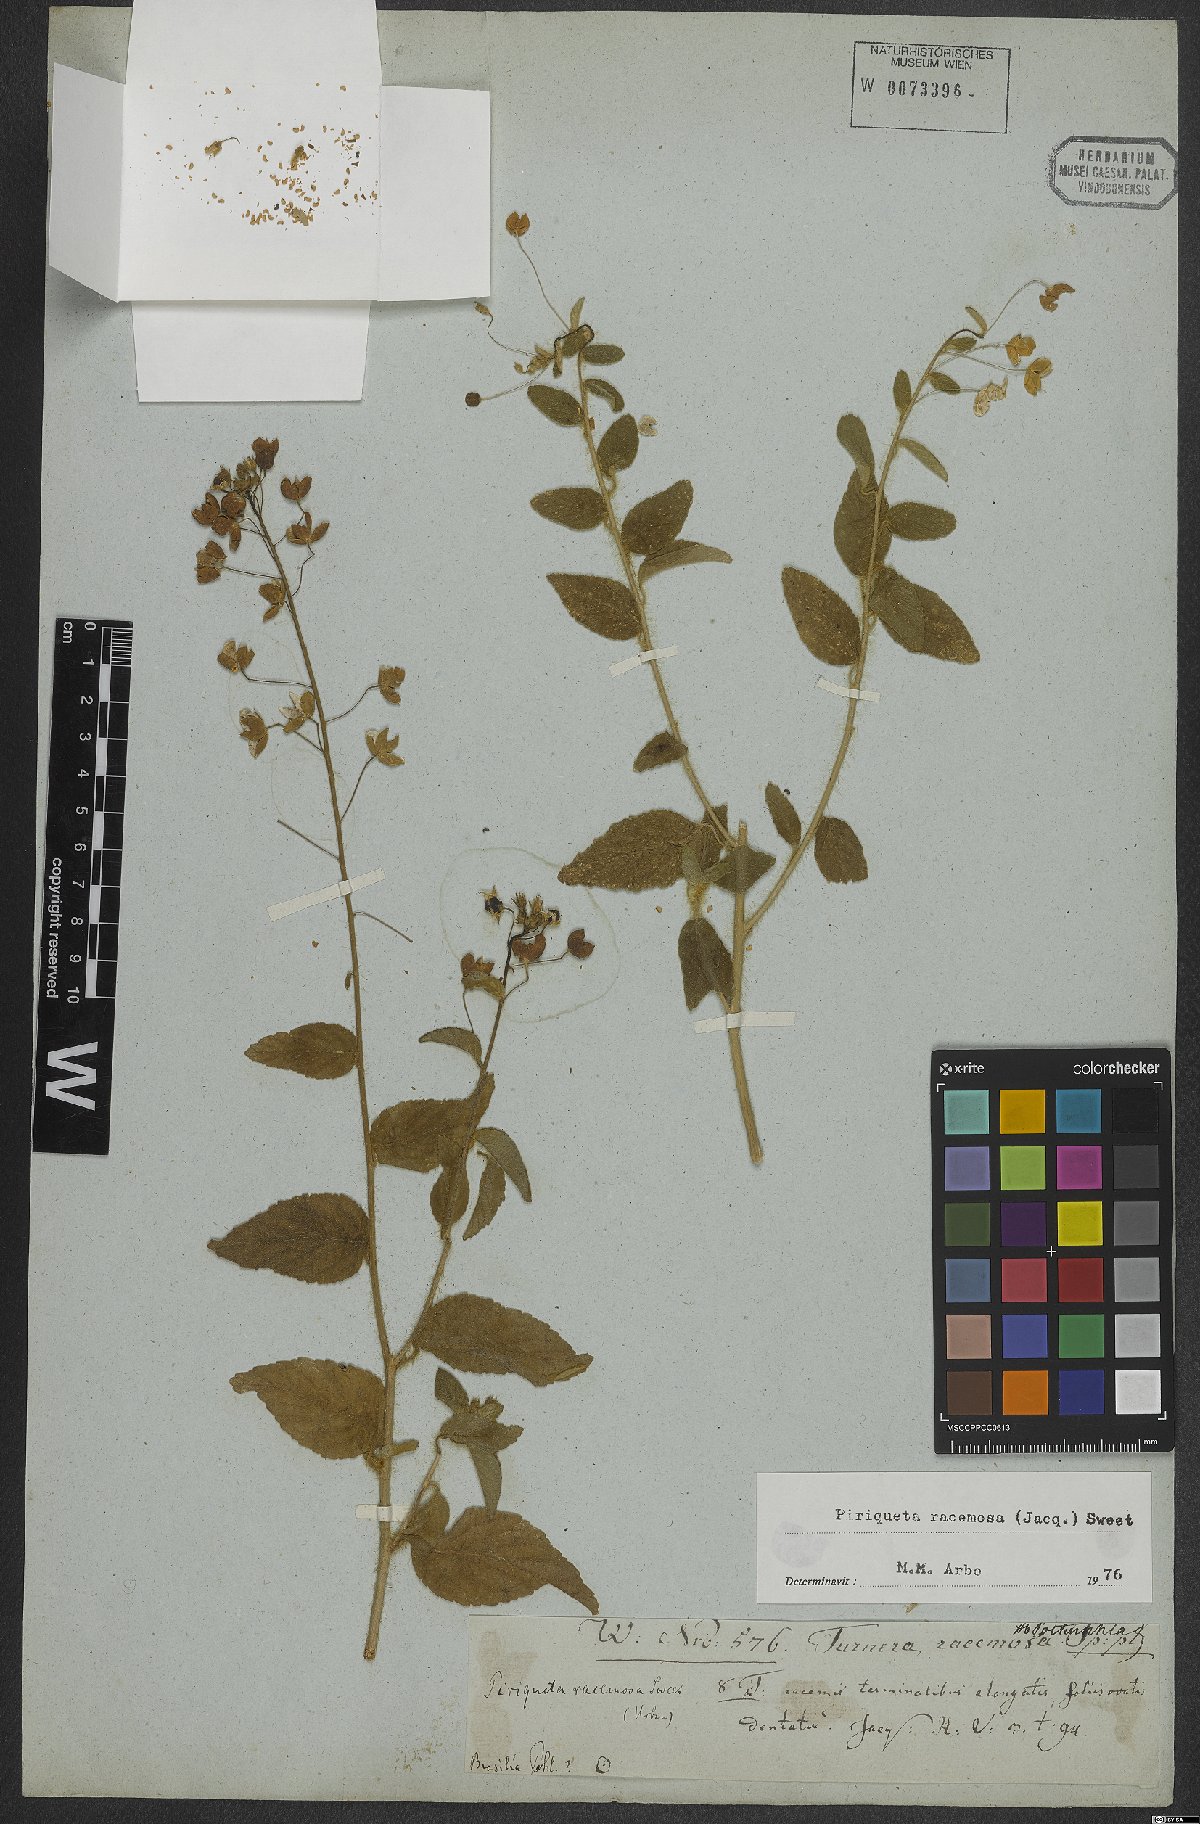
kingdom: Plantae
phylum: Tracheophyta
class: Magnoliopsida
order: Malpighiales
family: Turneraceae
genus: Piriqueta
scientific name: Piriqueta racemosa
